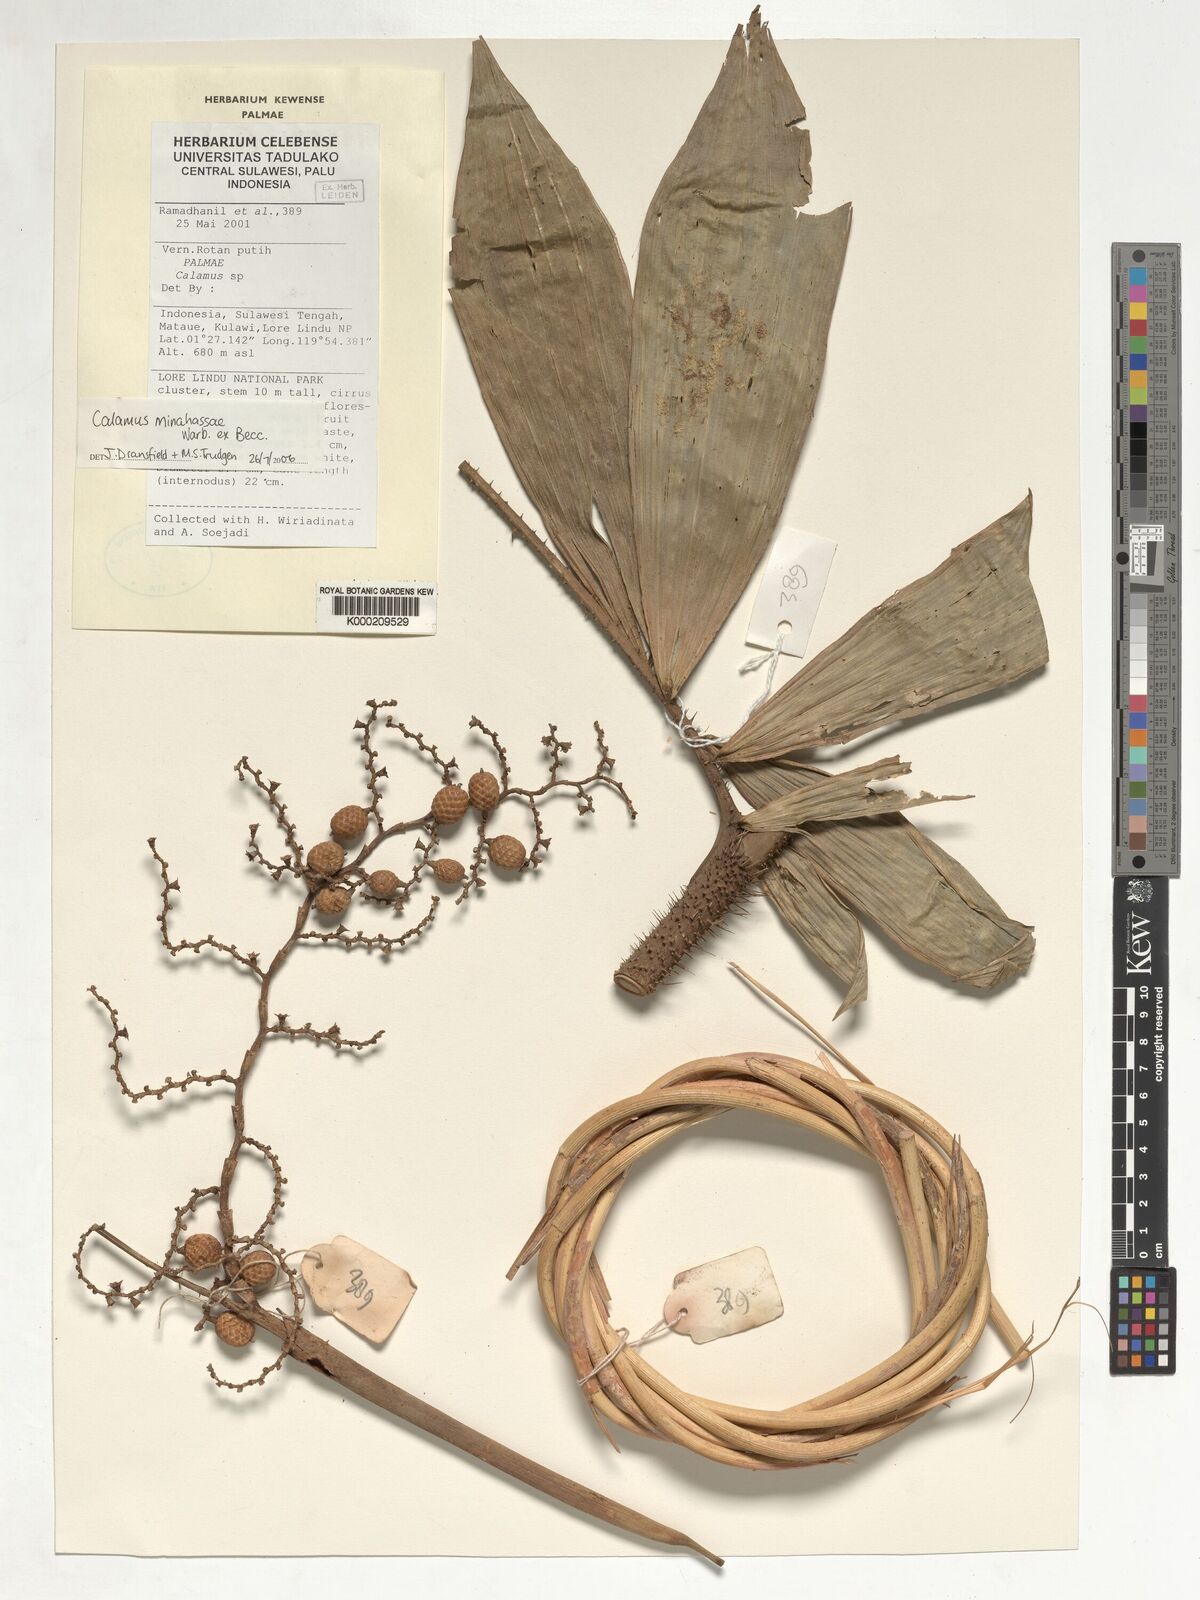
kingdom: Plantae
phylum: Tracheophyta
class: Liliopsida
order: Arecales
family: Arecaceae
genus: Calamus
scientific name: Calamus
